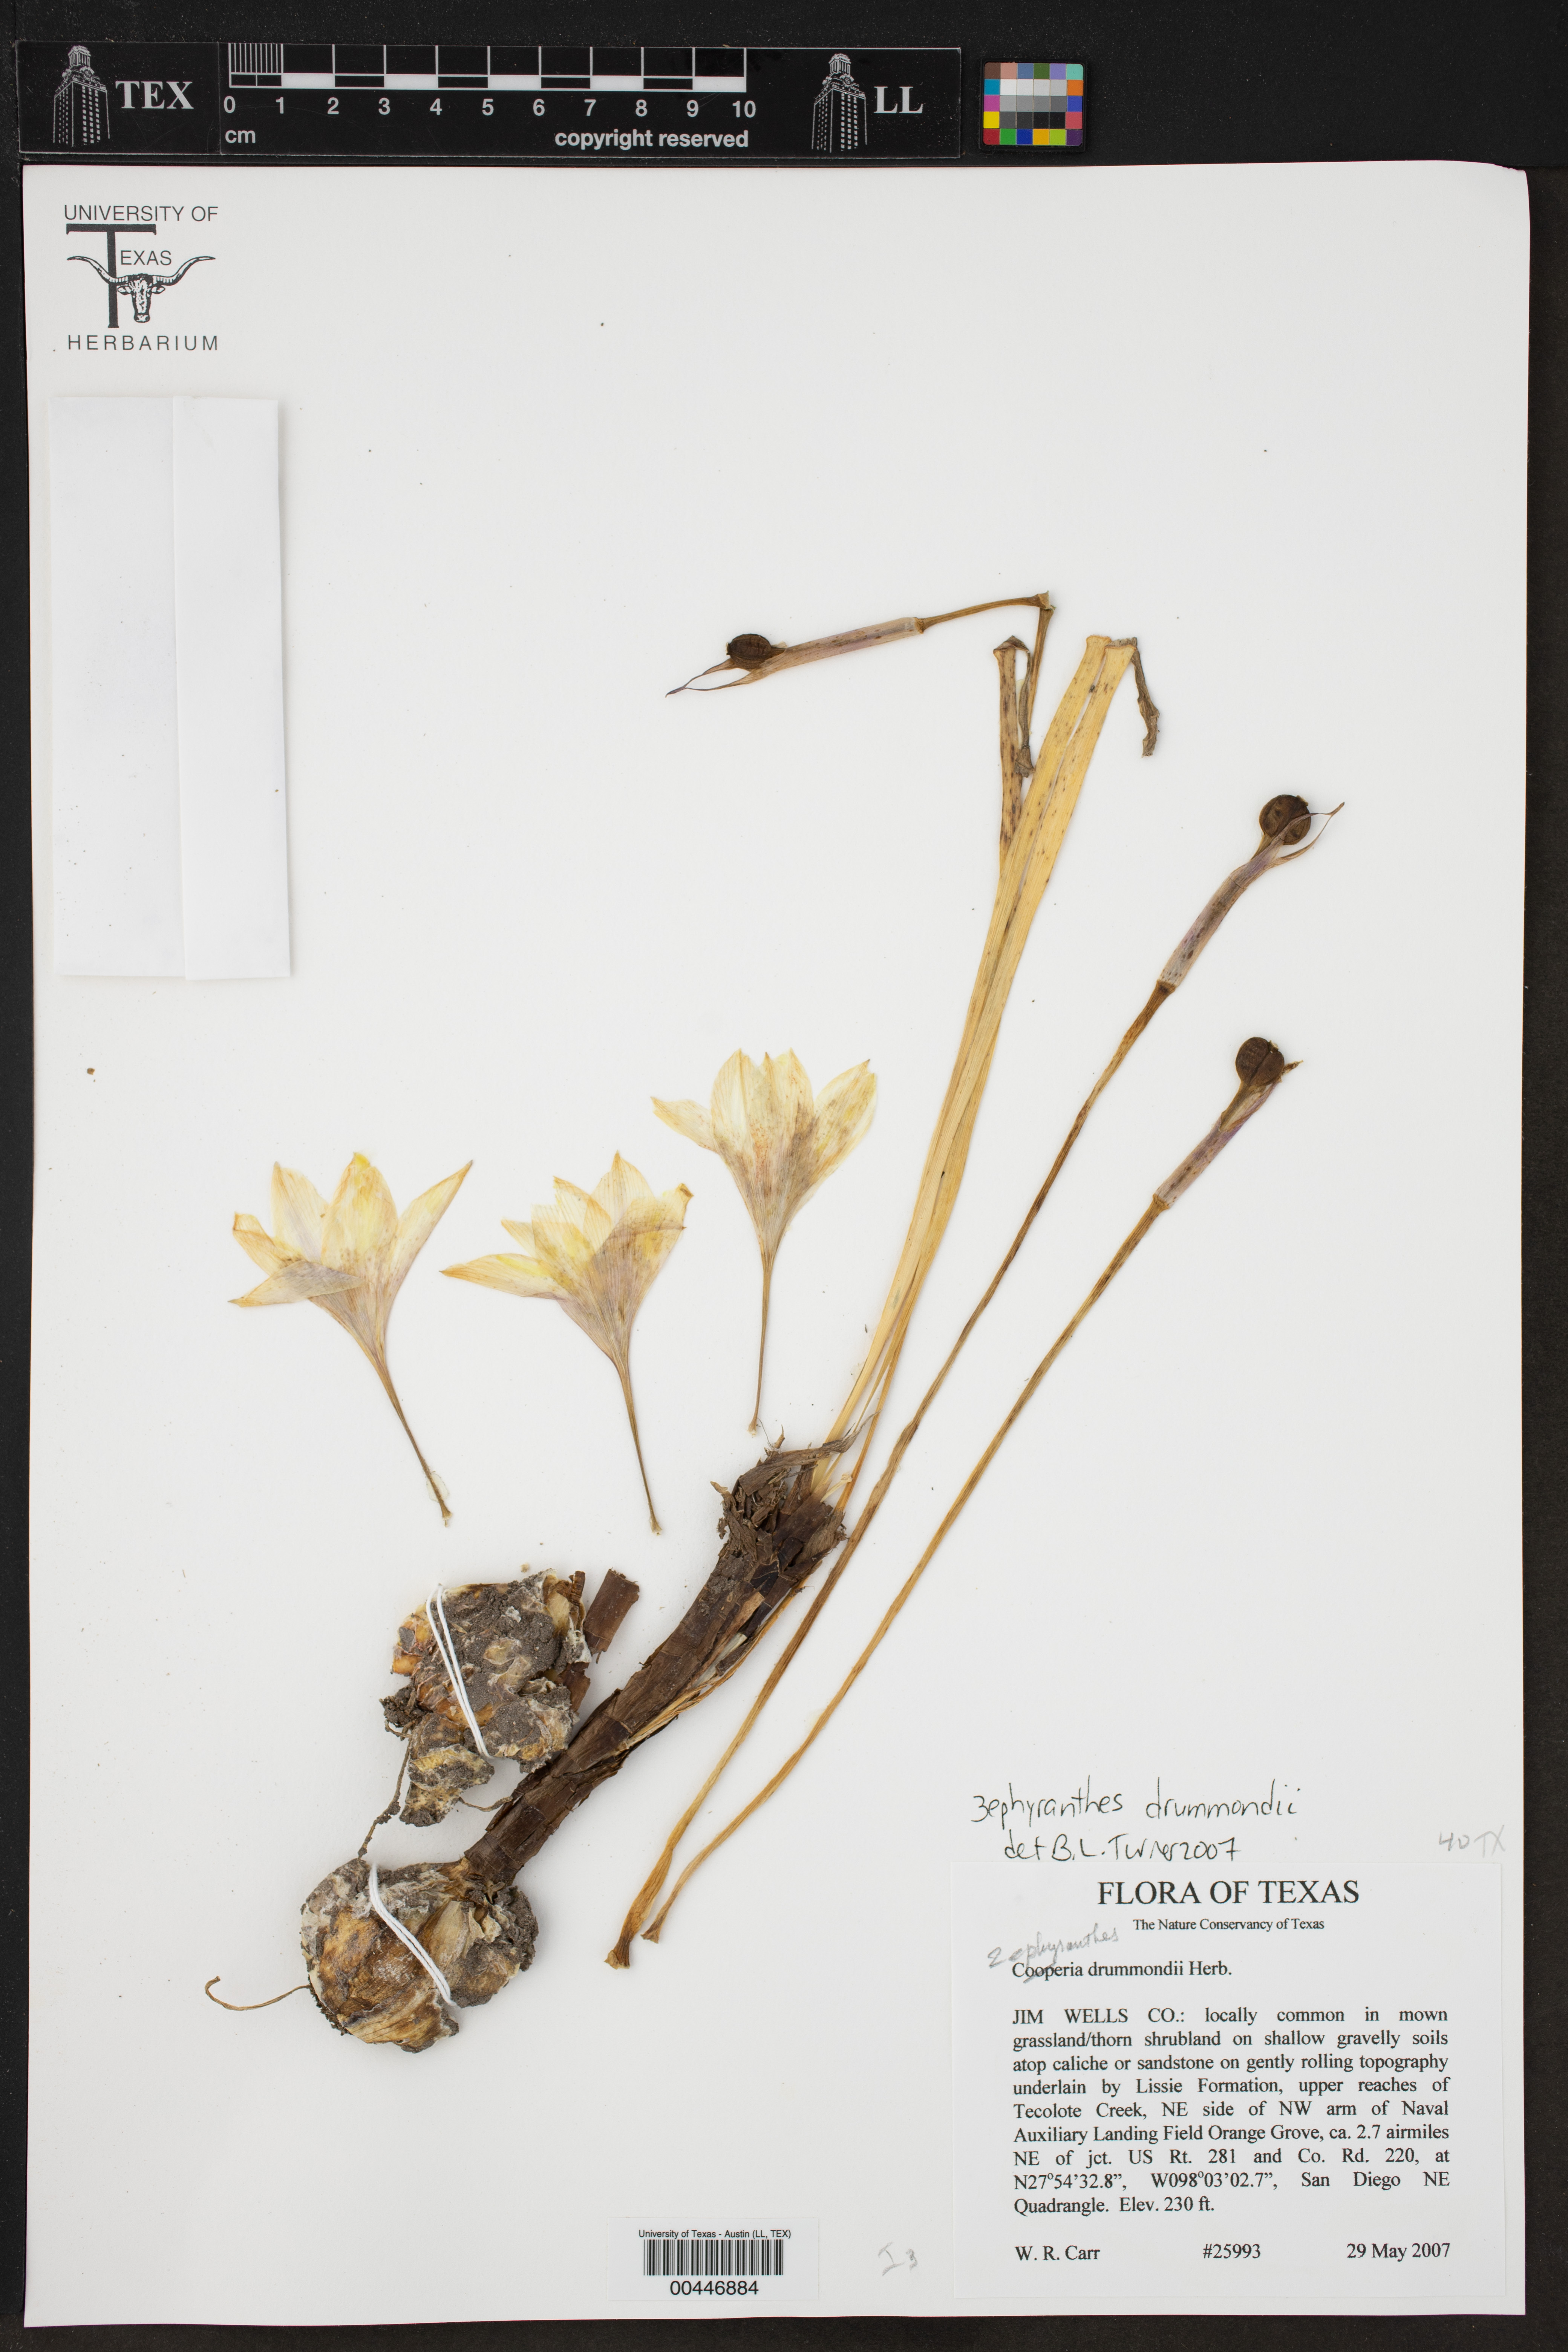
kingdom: Plantae
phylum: Tracheophyta
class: Liliopsida
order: Asparagales
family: Amaryllidaceae
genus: Zephyranthes
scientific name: Zephyranthes drummondii
